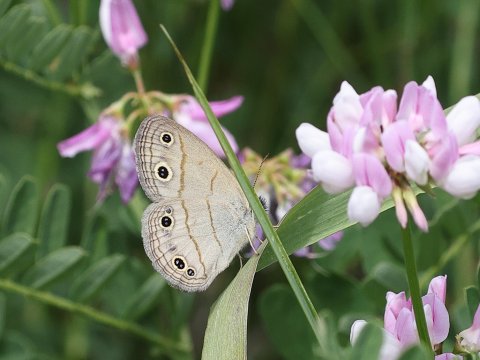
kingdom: Animalia
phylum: Arthropoda
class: Insecta
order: Lepidoptera
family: Nymphalidae
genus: Euptychia
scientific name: Euptychia cymela
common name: Little Wood Satyr
